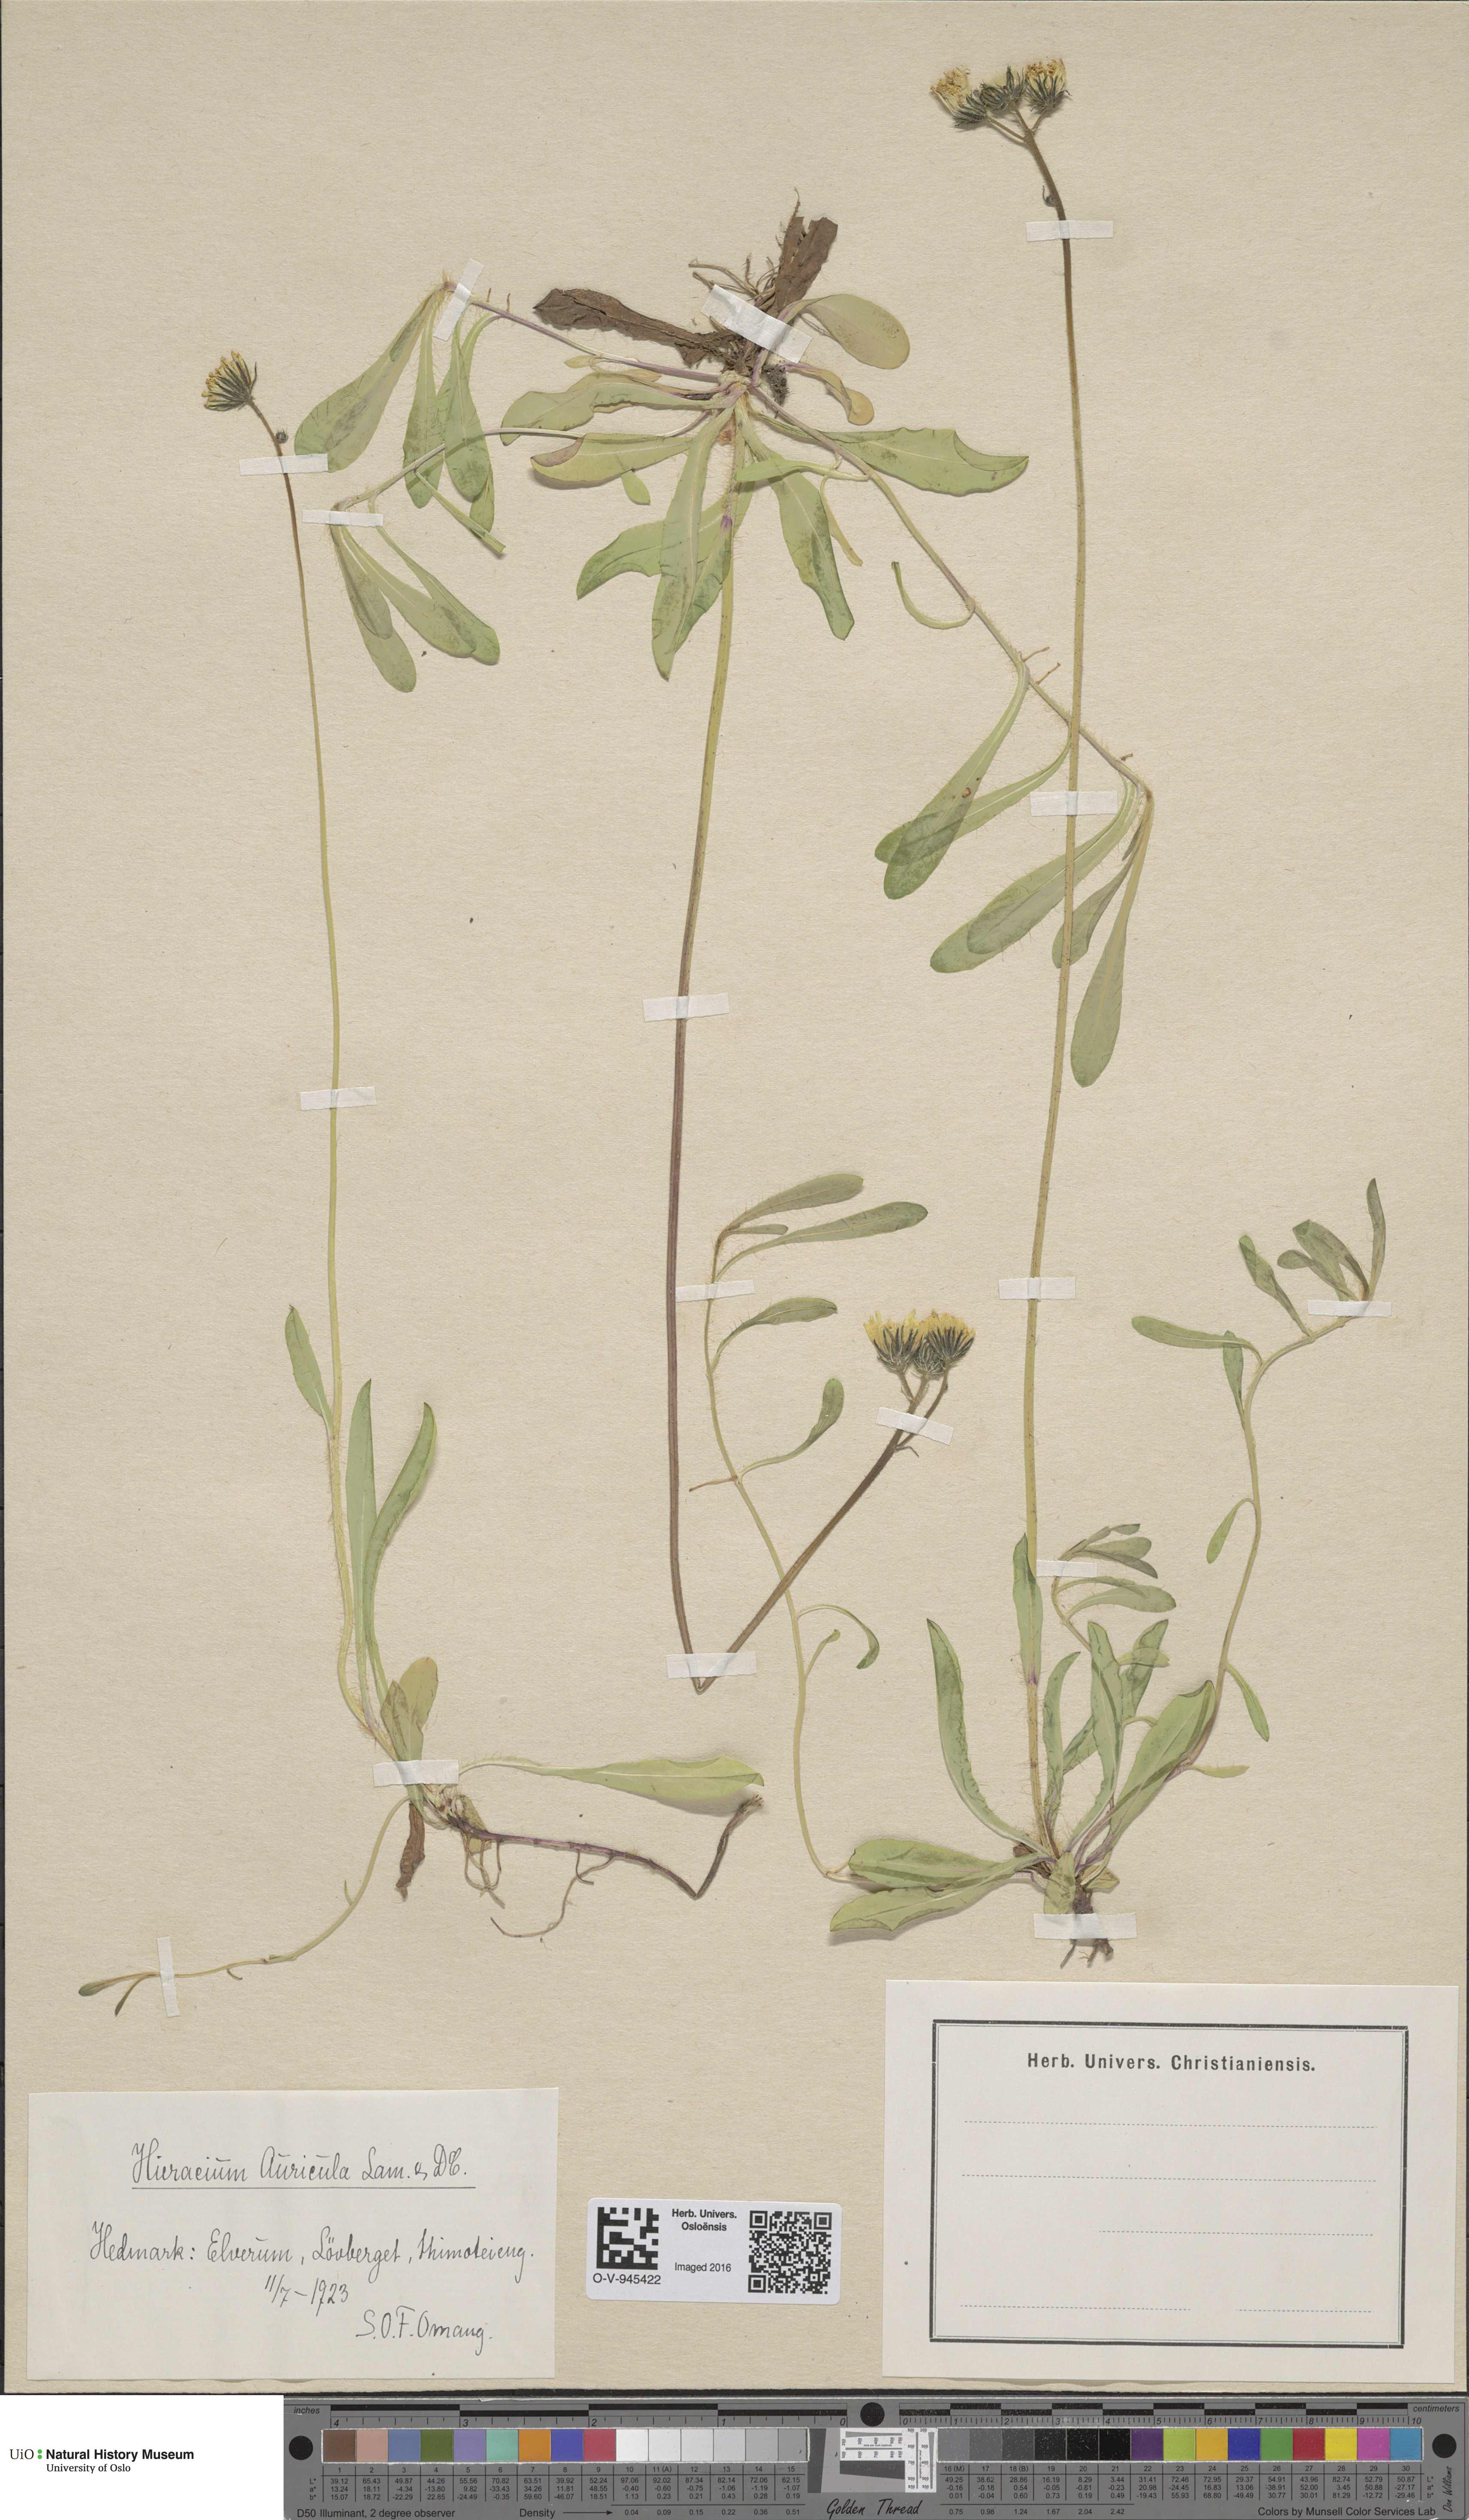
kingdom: Plantae
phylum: Tracheophyta
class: Magnoliopsida
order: Asterales
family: Asteraceae
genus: Pilosella
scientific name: Pilosella lactucella
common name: Glaucous fox-and-cubs
